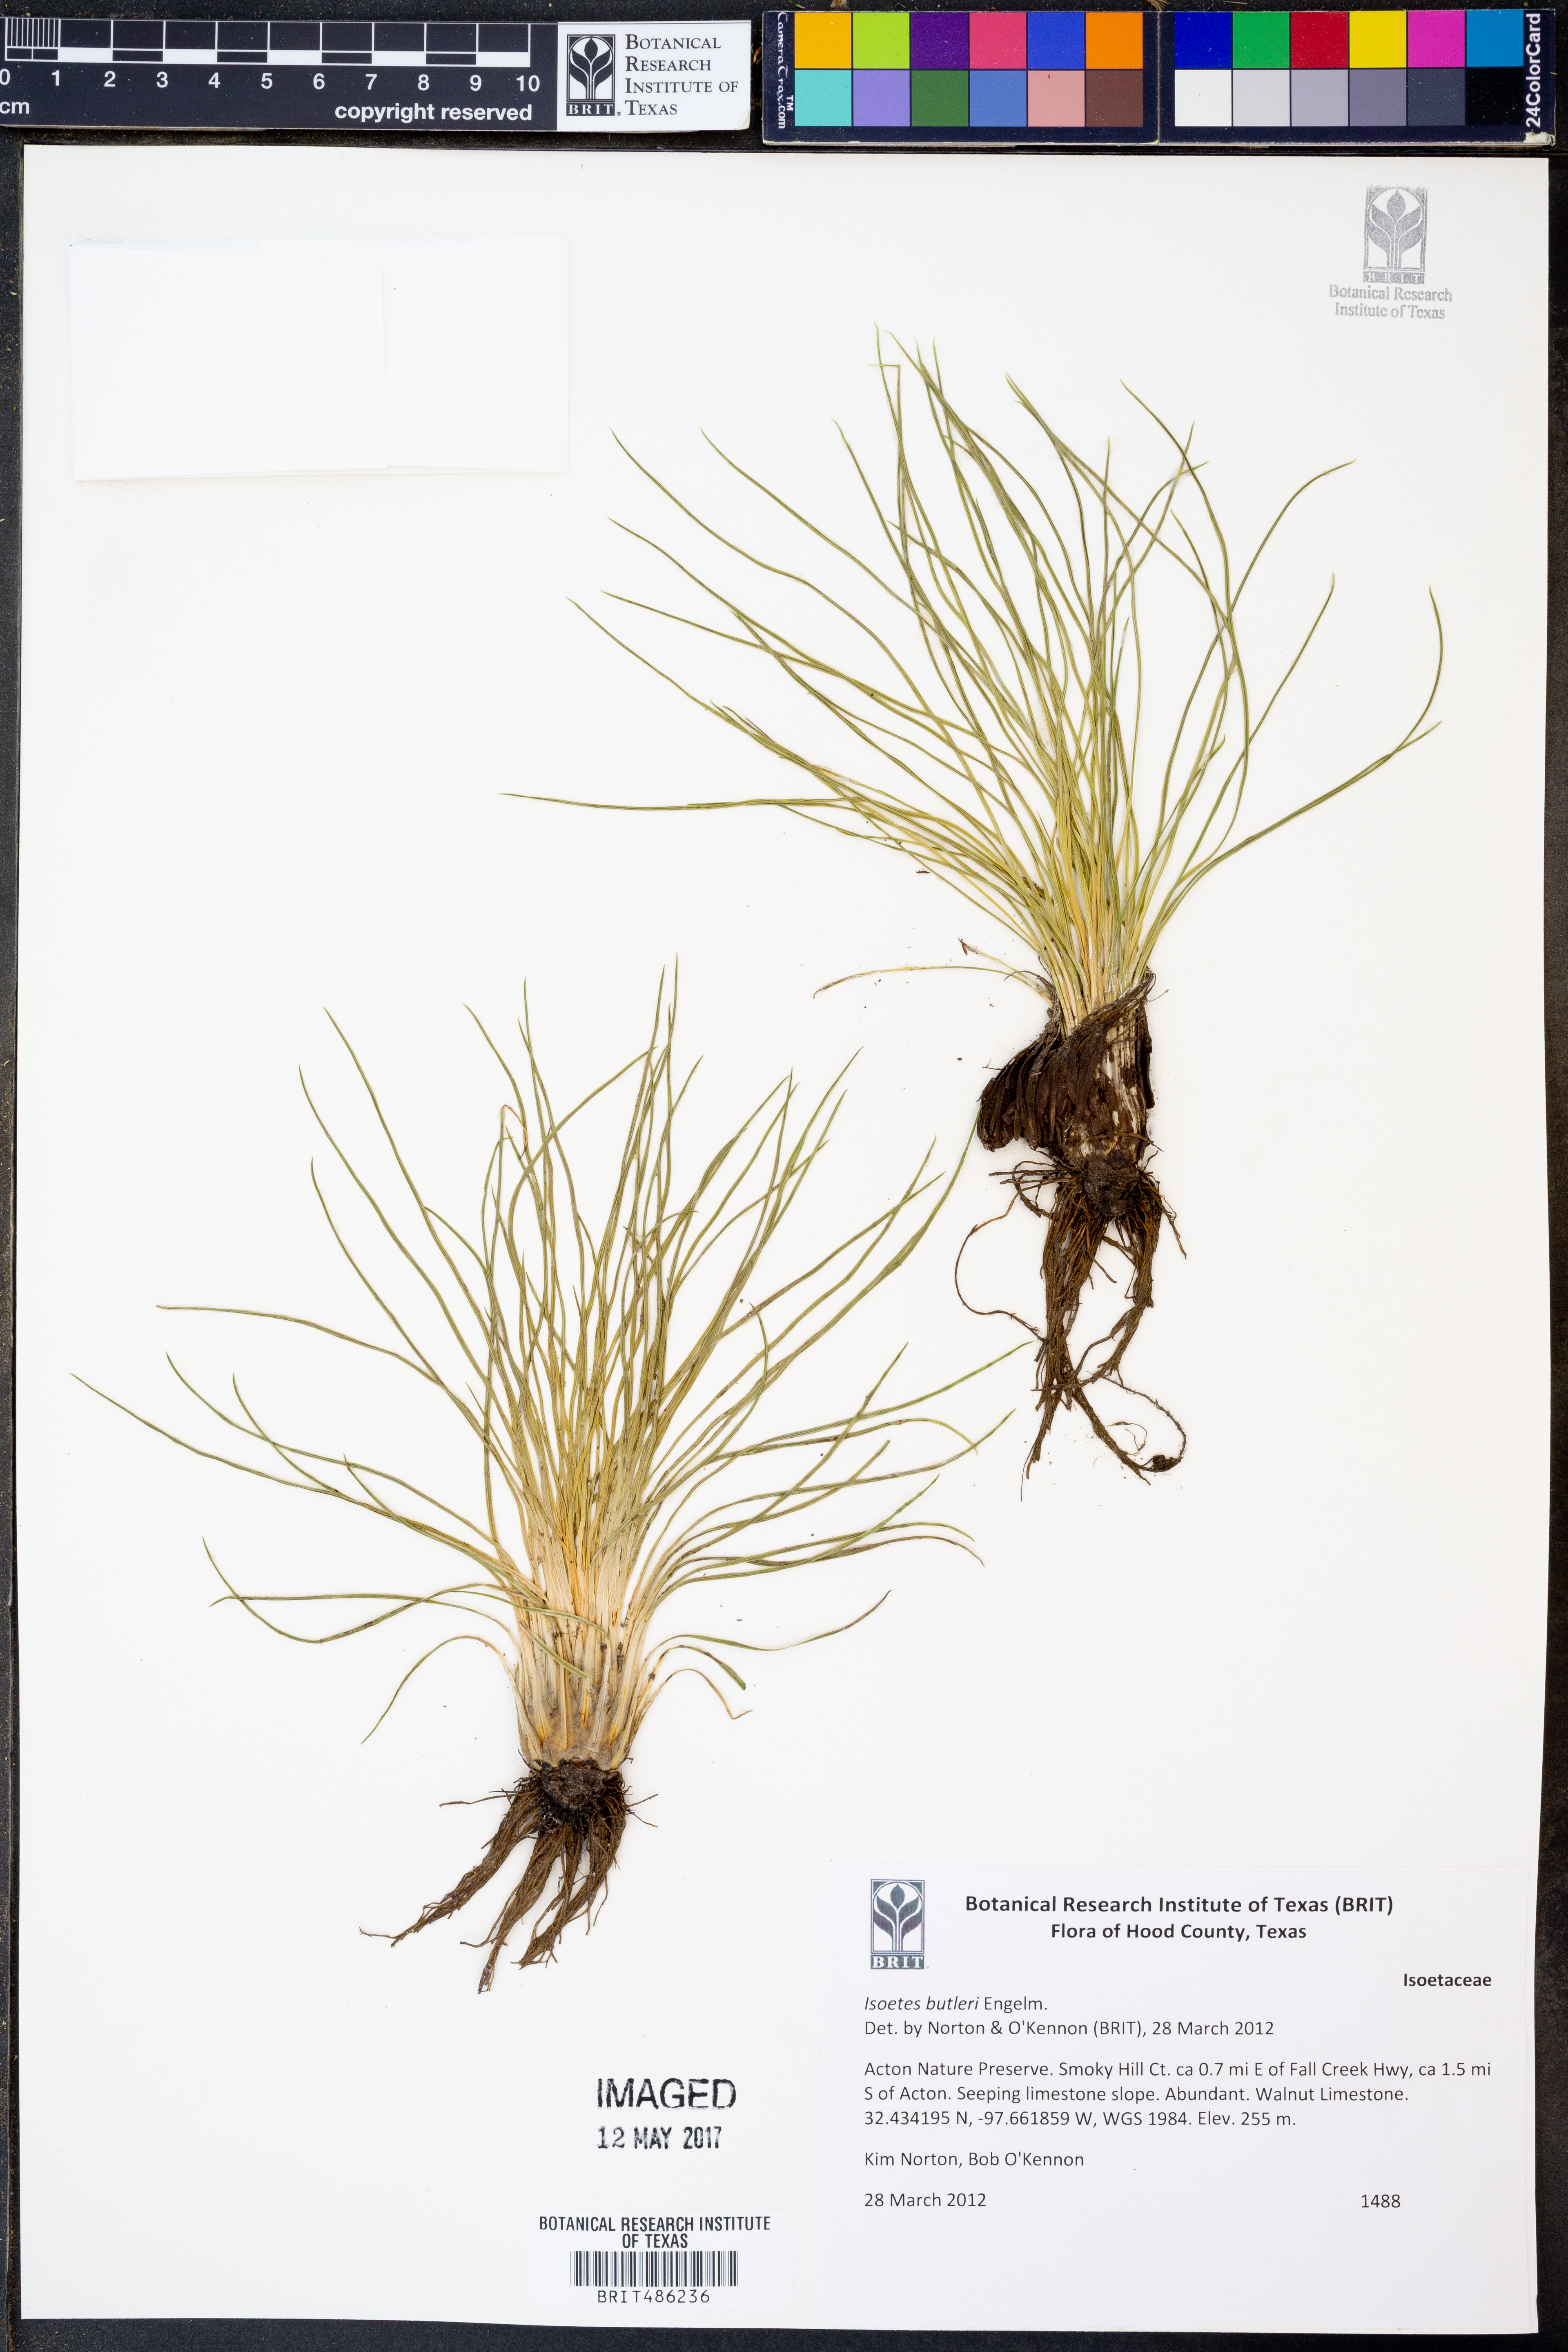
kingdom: Plantae
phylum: Tracheophyta
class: Lycopodiopsida
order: Isoetales
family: Isoetaceae
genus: Isoetes
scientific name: Isoetes butleri
